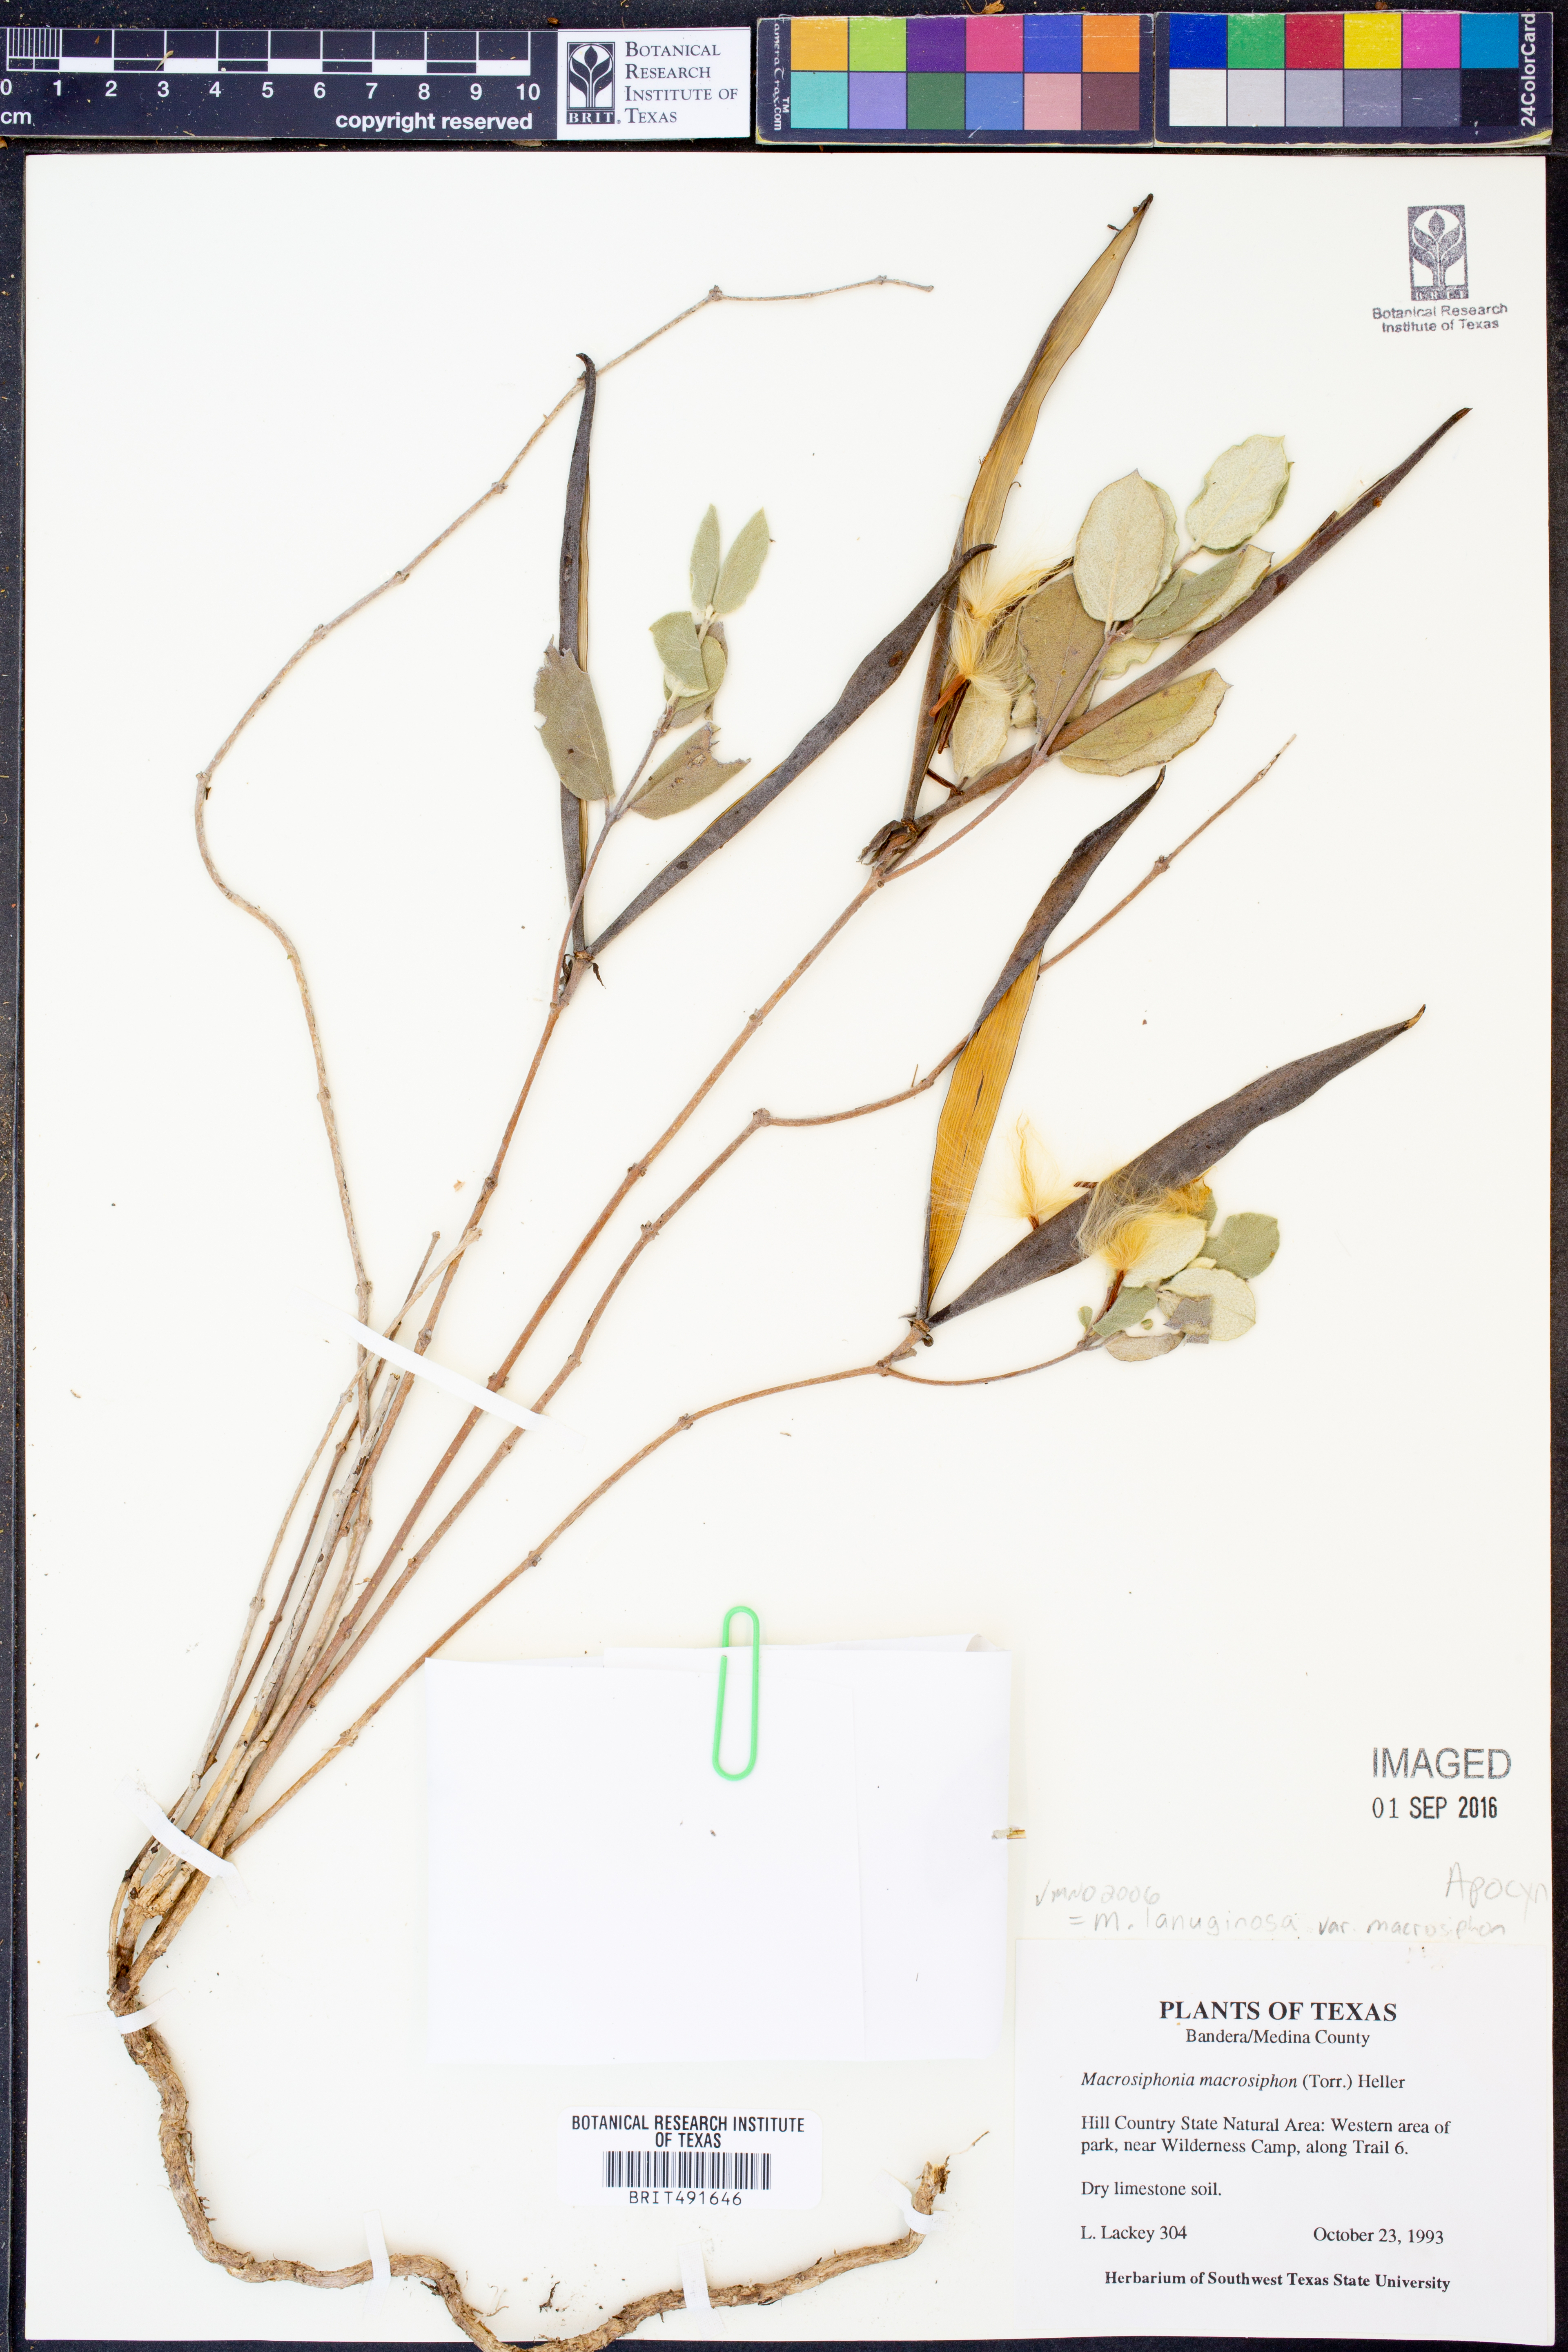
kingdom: Plantae
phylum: Tracheophyta
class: Magnoliopsida
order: Gentianales
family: Apocynaceae
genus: Mandevilla
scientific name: Mandevilla macrosiphon
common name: Plateau rocktrumpet
